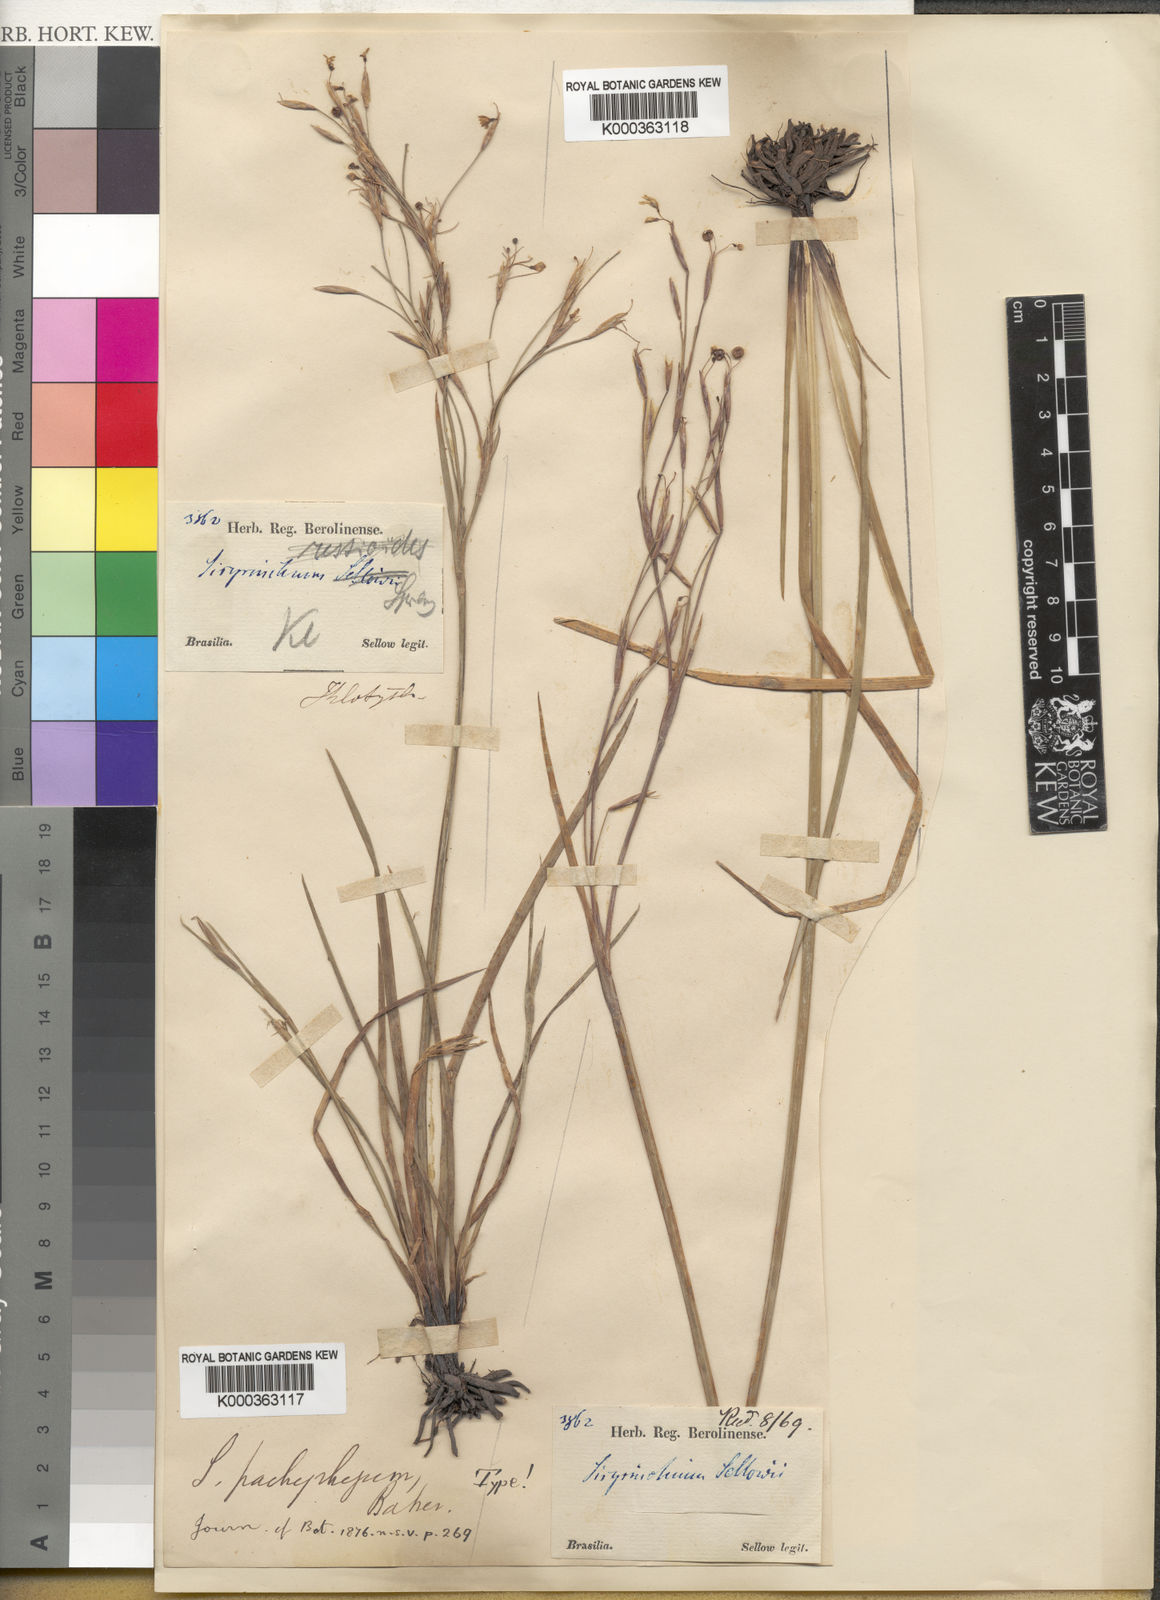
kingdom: Plantae
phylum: Tracheophyta
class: Liliopsida
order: Asparagales
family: Iridaceae
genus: Sisyrinchium
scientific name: Sisyrinchium pachyrhizum
